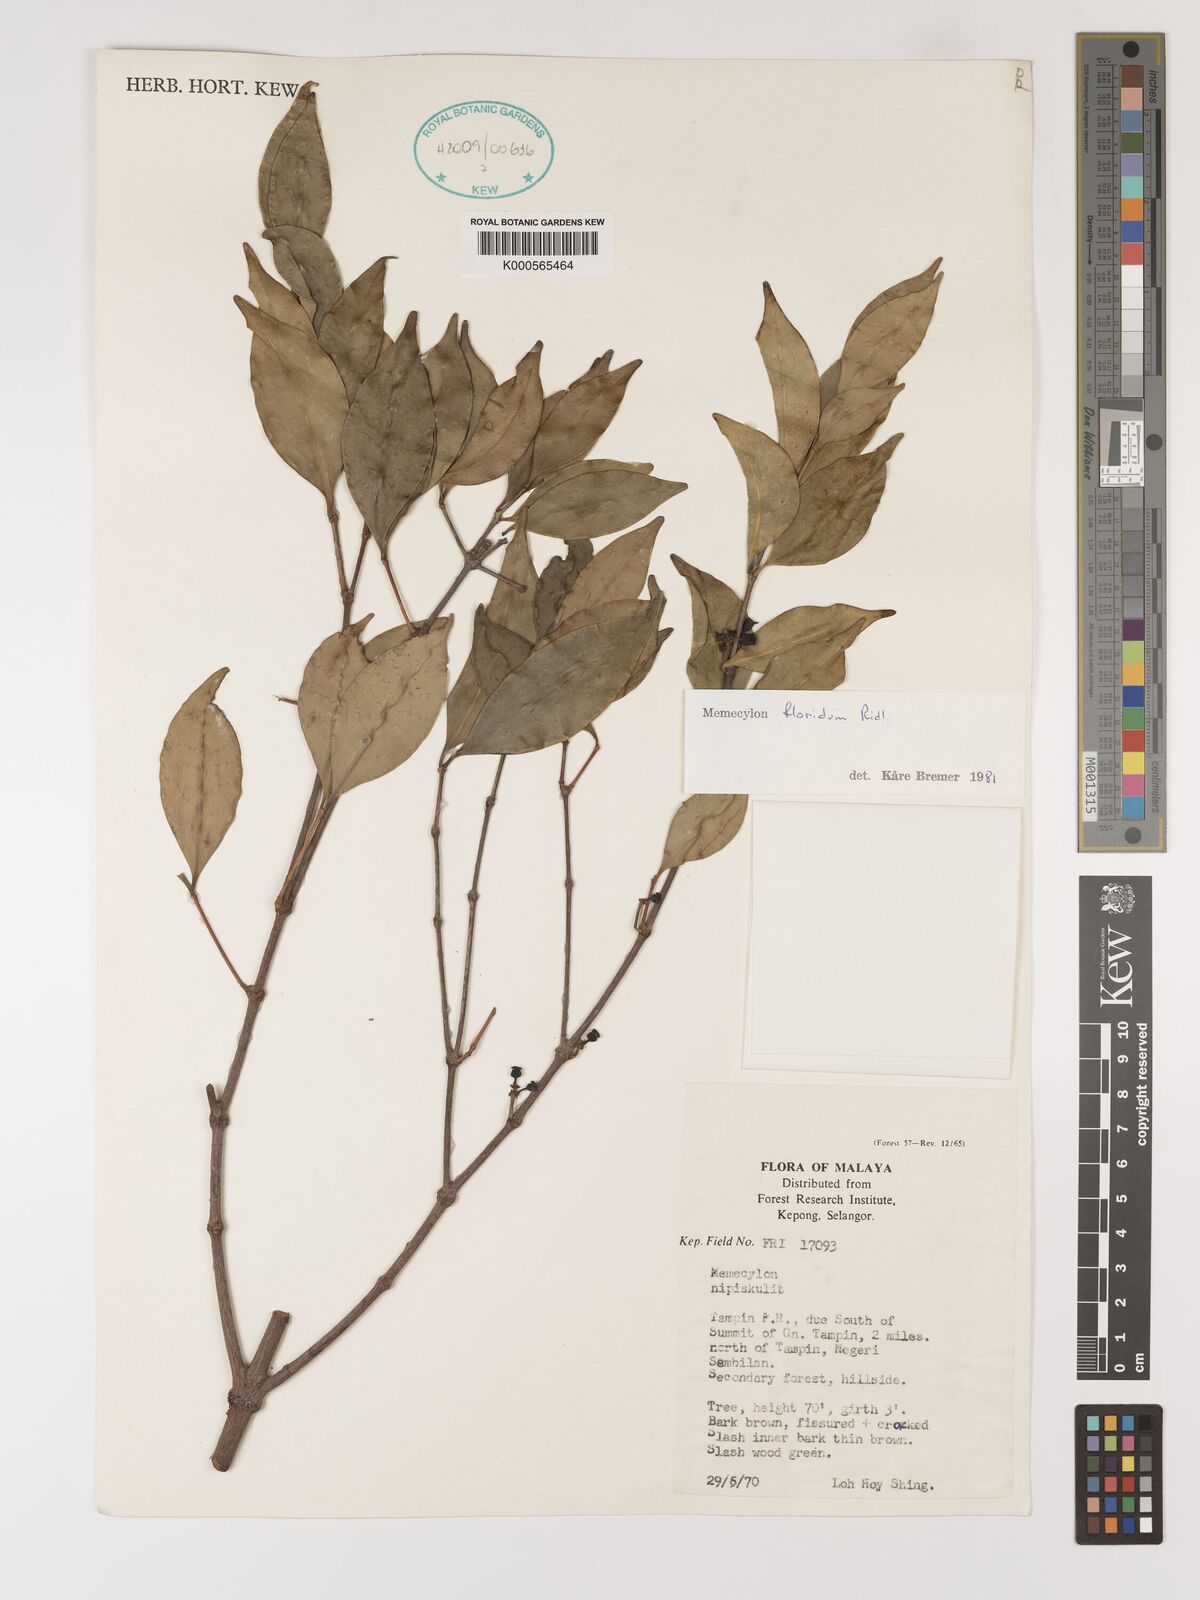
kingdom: Plantae
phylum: Tracheophyta
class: Magnoliopsida
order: Myrtales
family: Melastomataceae
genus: Memecylon
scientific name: Memecylon floridum
